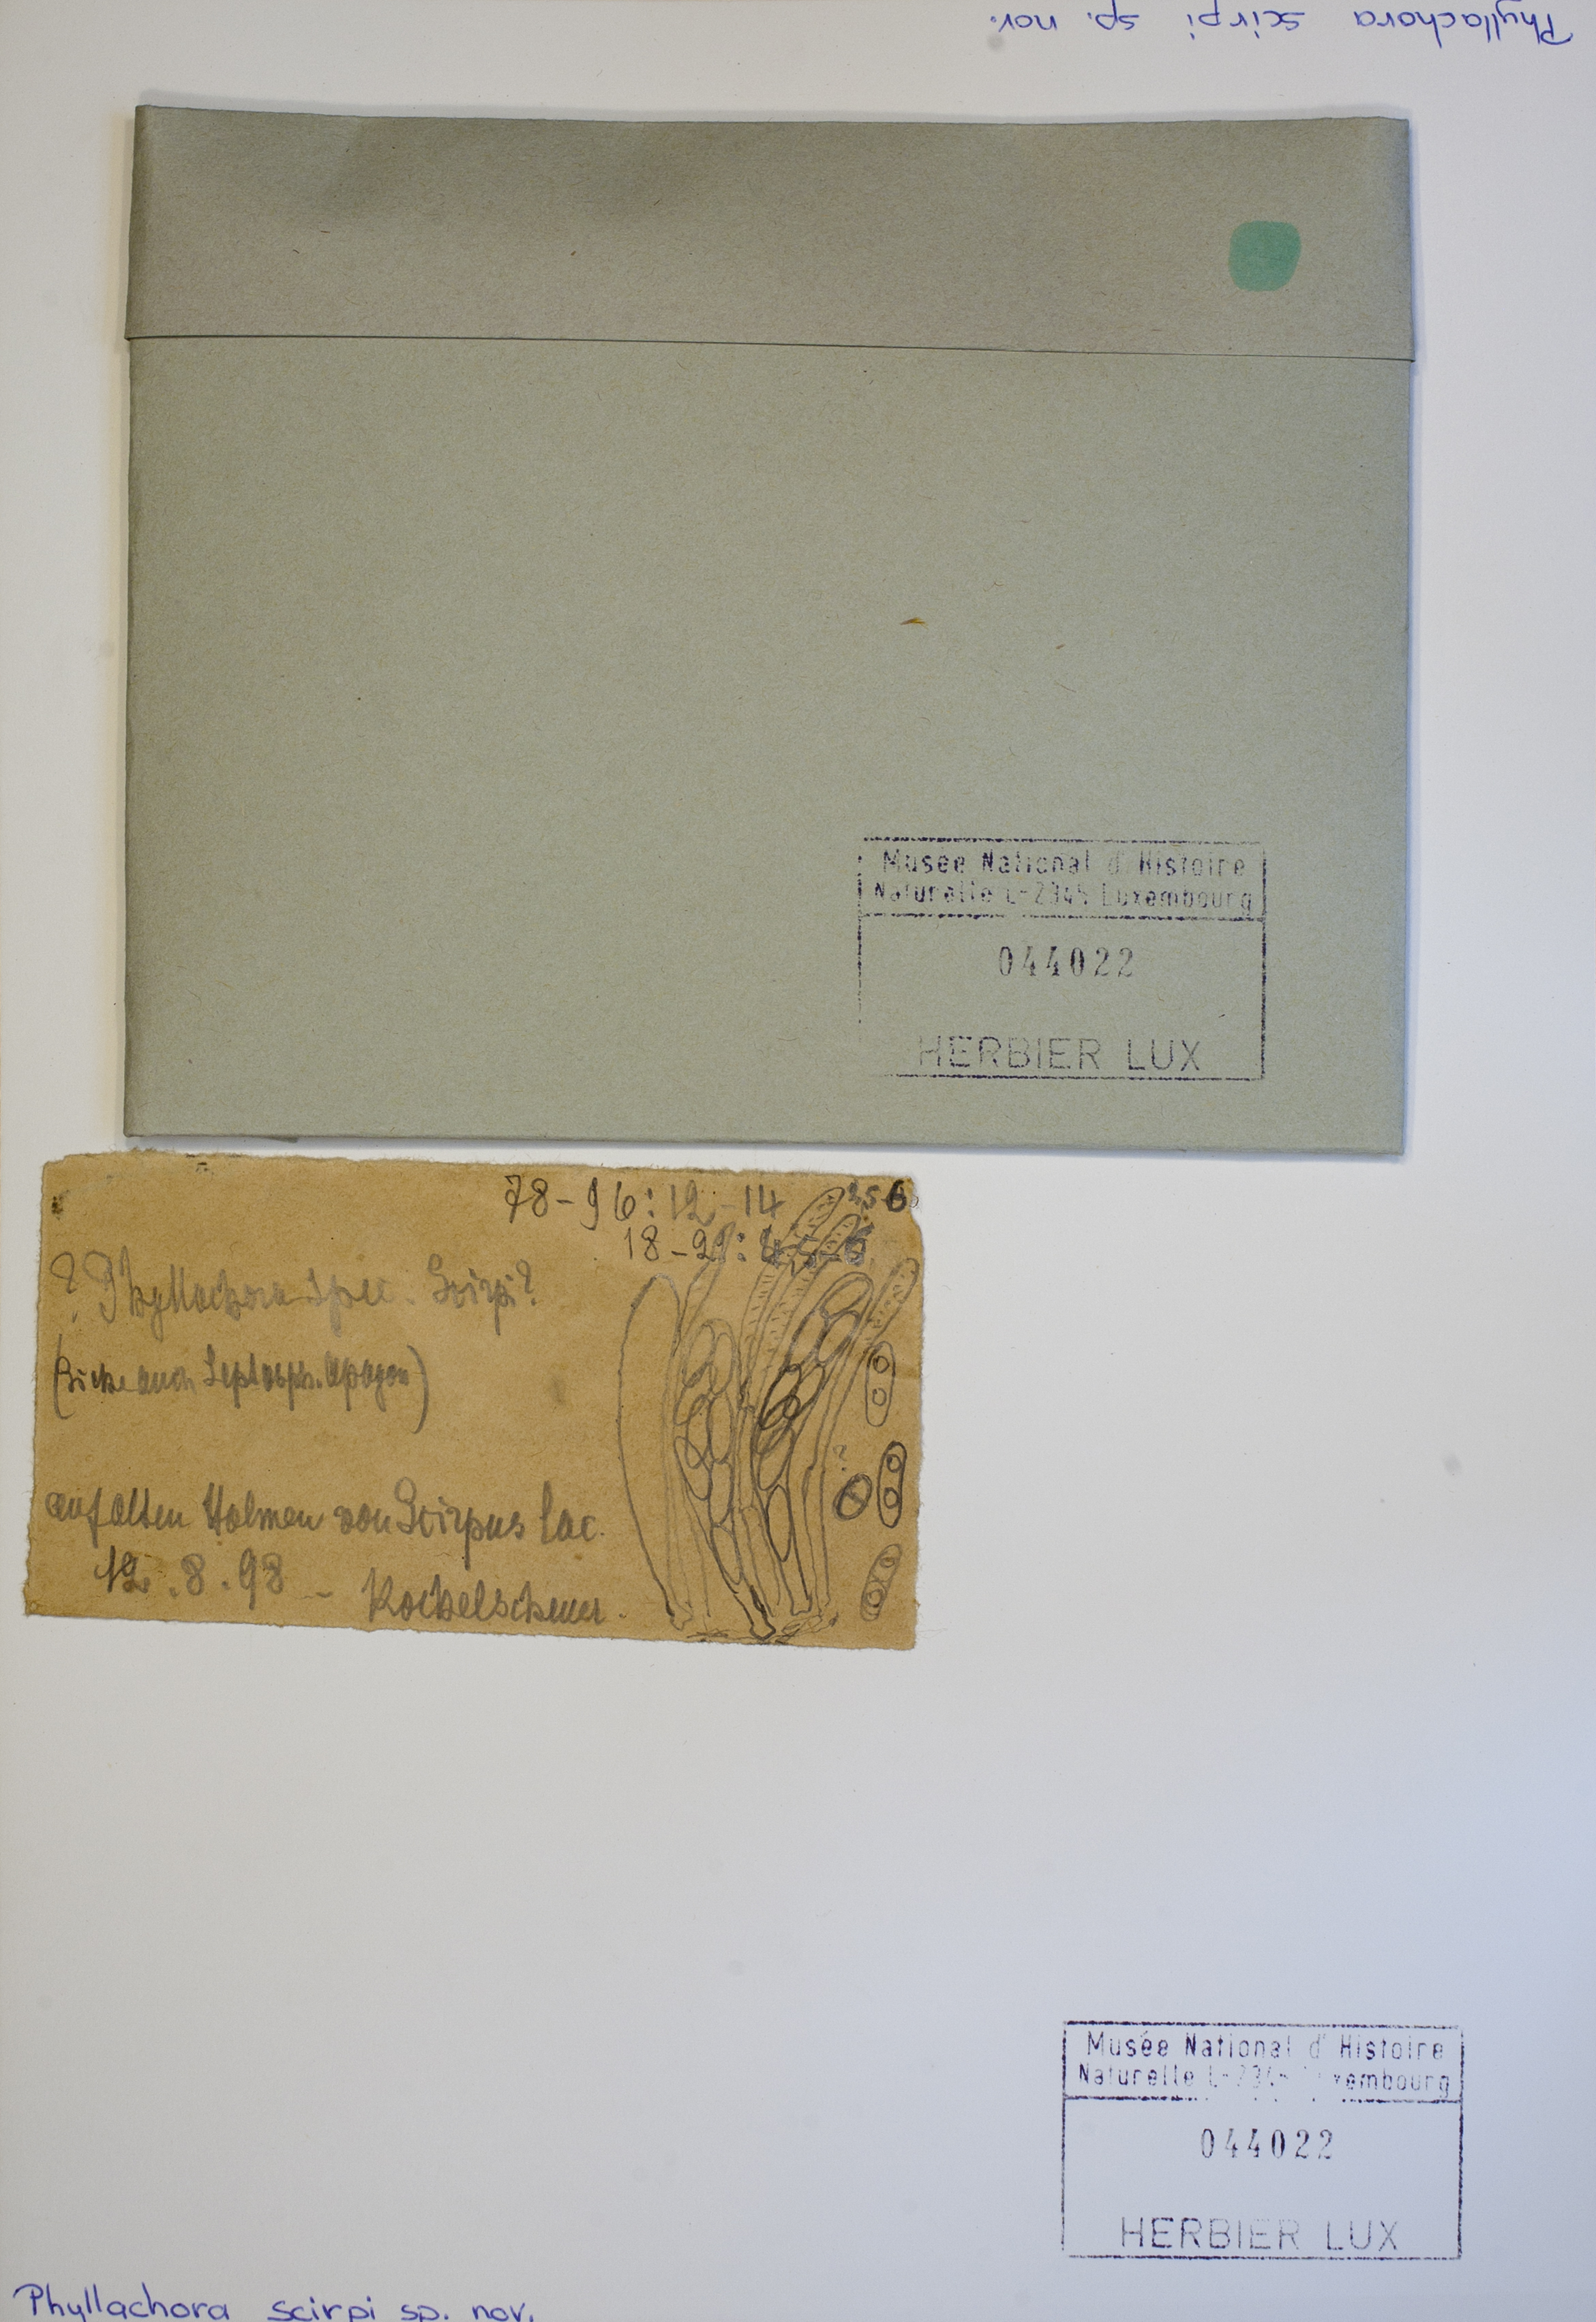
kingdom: Fungi
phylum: Ascomycota
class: Sordariomycetes
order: Phyllachorales
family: Phyllachoraceae
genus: Phyllachora
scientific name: Phyllachora scirpi
